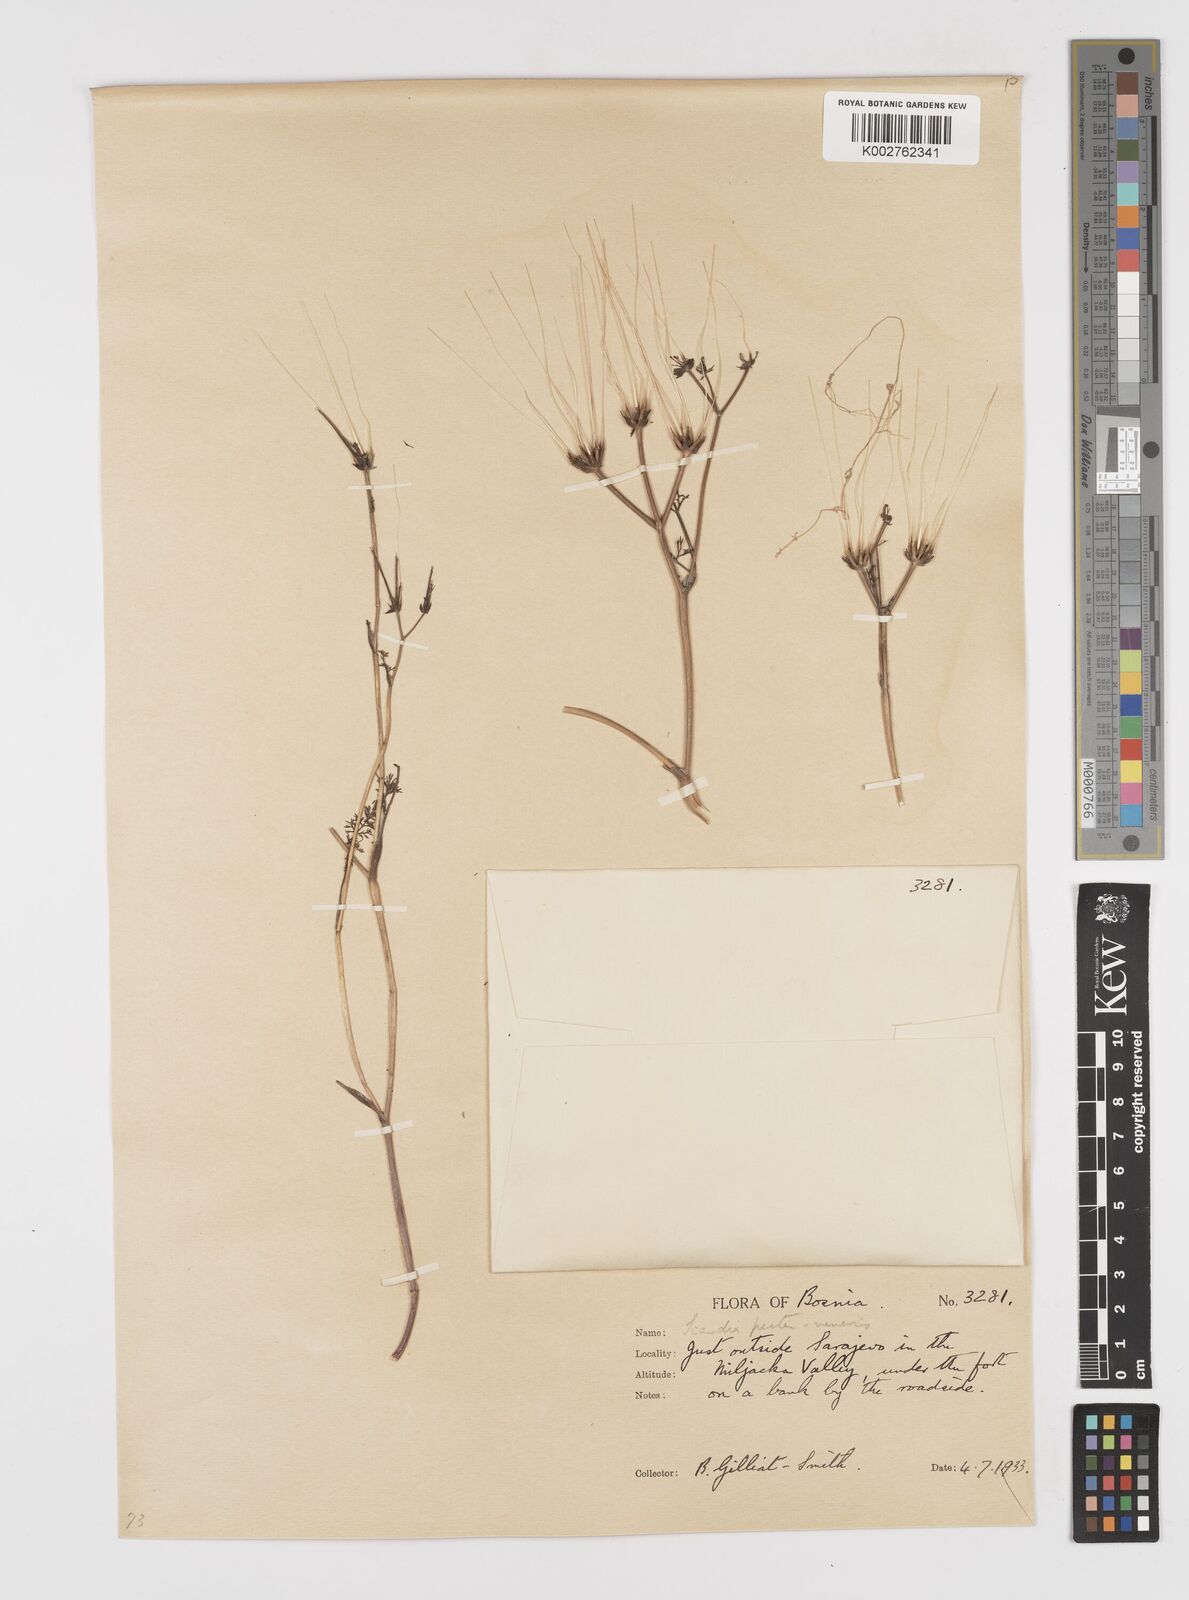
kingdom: Plantae
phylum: Tracheophyta
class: Magnoliopsida
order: Apiales
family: Apiaceae
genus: Scandix
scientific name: Scandix pecten-veneris
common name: Shepherd's-needle
